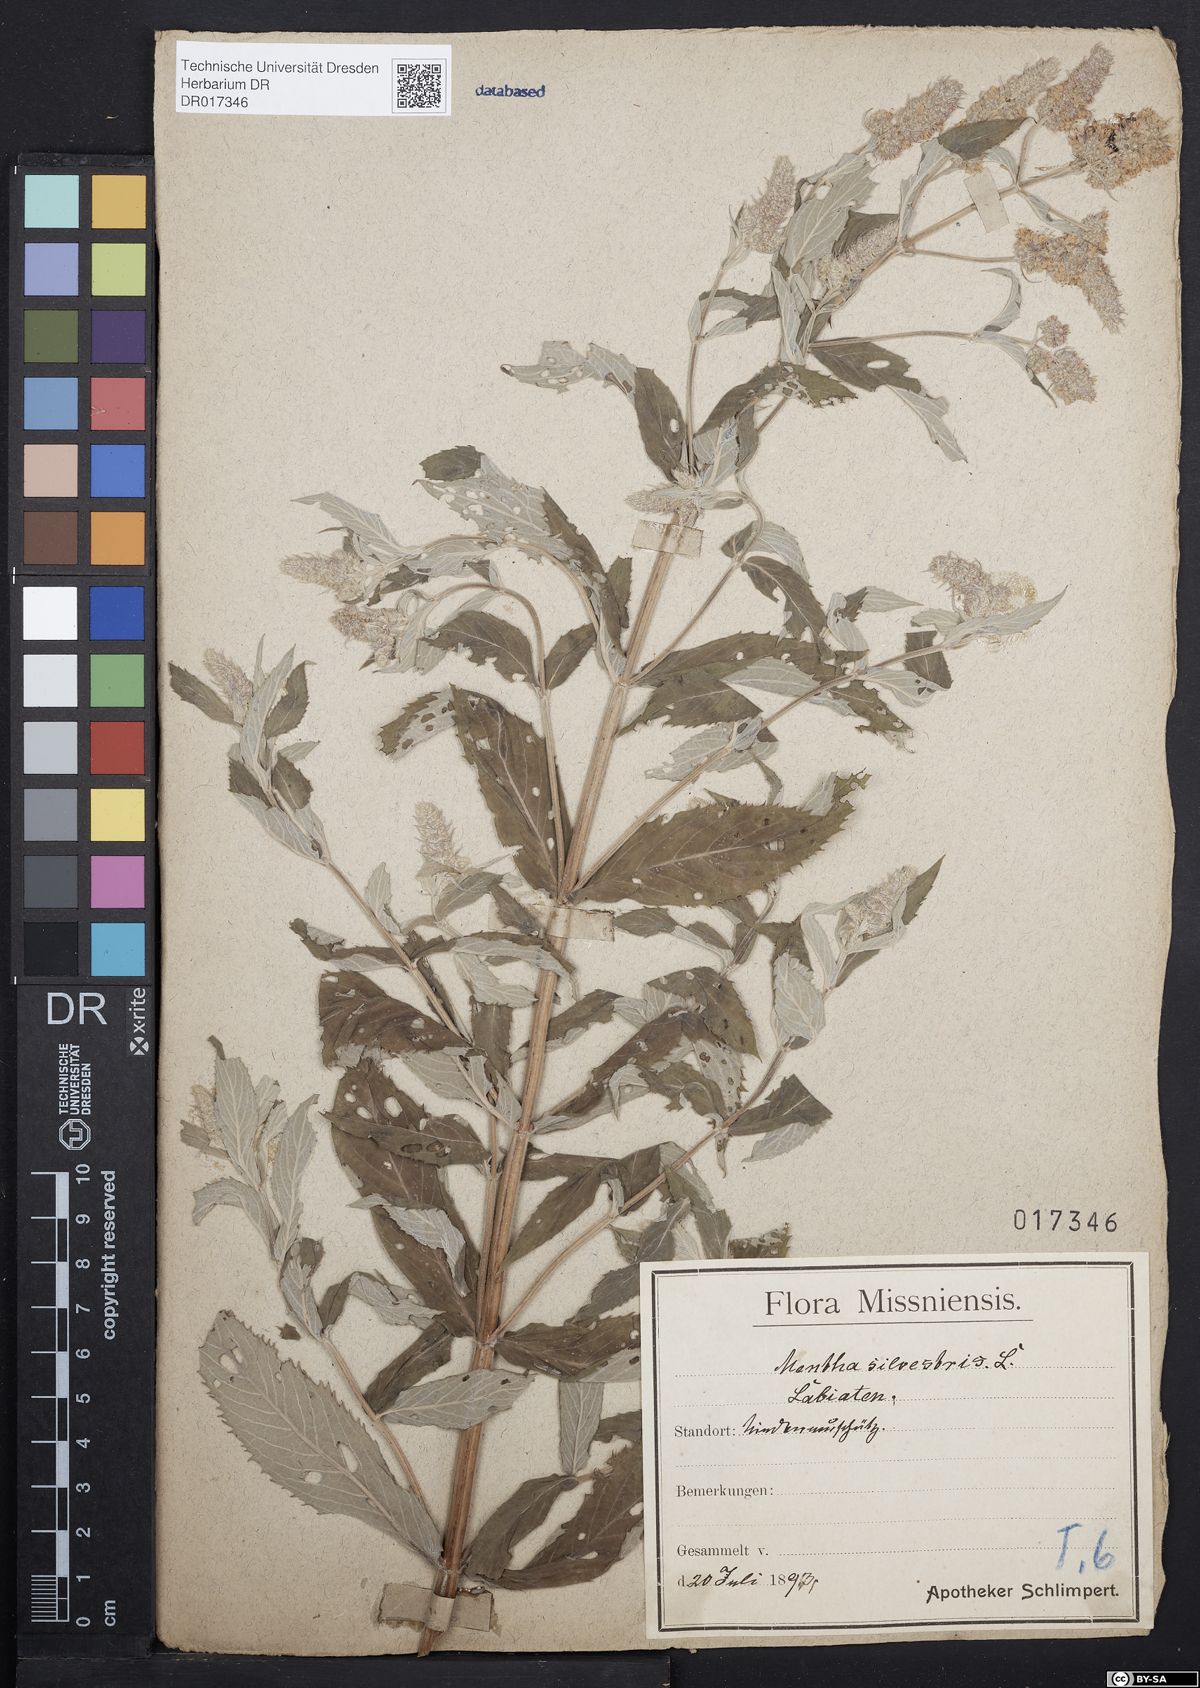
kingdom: Plantae
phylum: Tracheophyta
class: Magnoliopsida
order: Lamiales
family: Lamiaceae
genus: Mentha
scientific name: Mentha longifolia
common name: Horse mint
